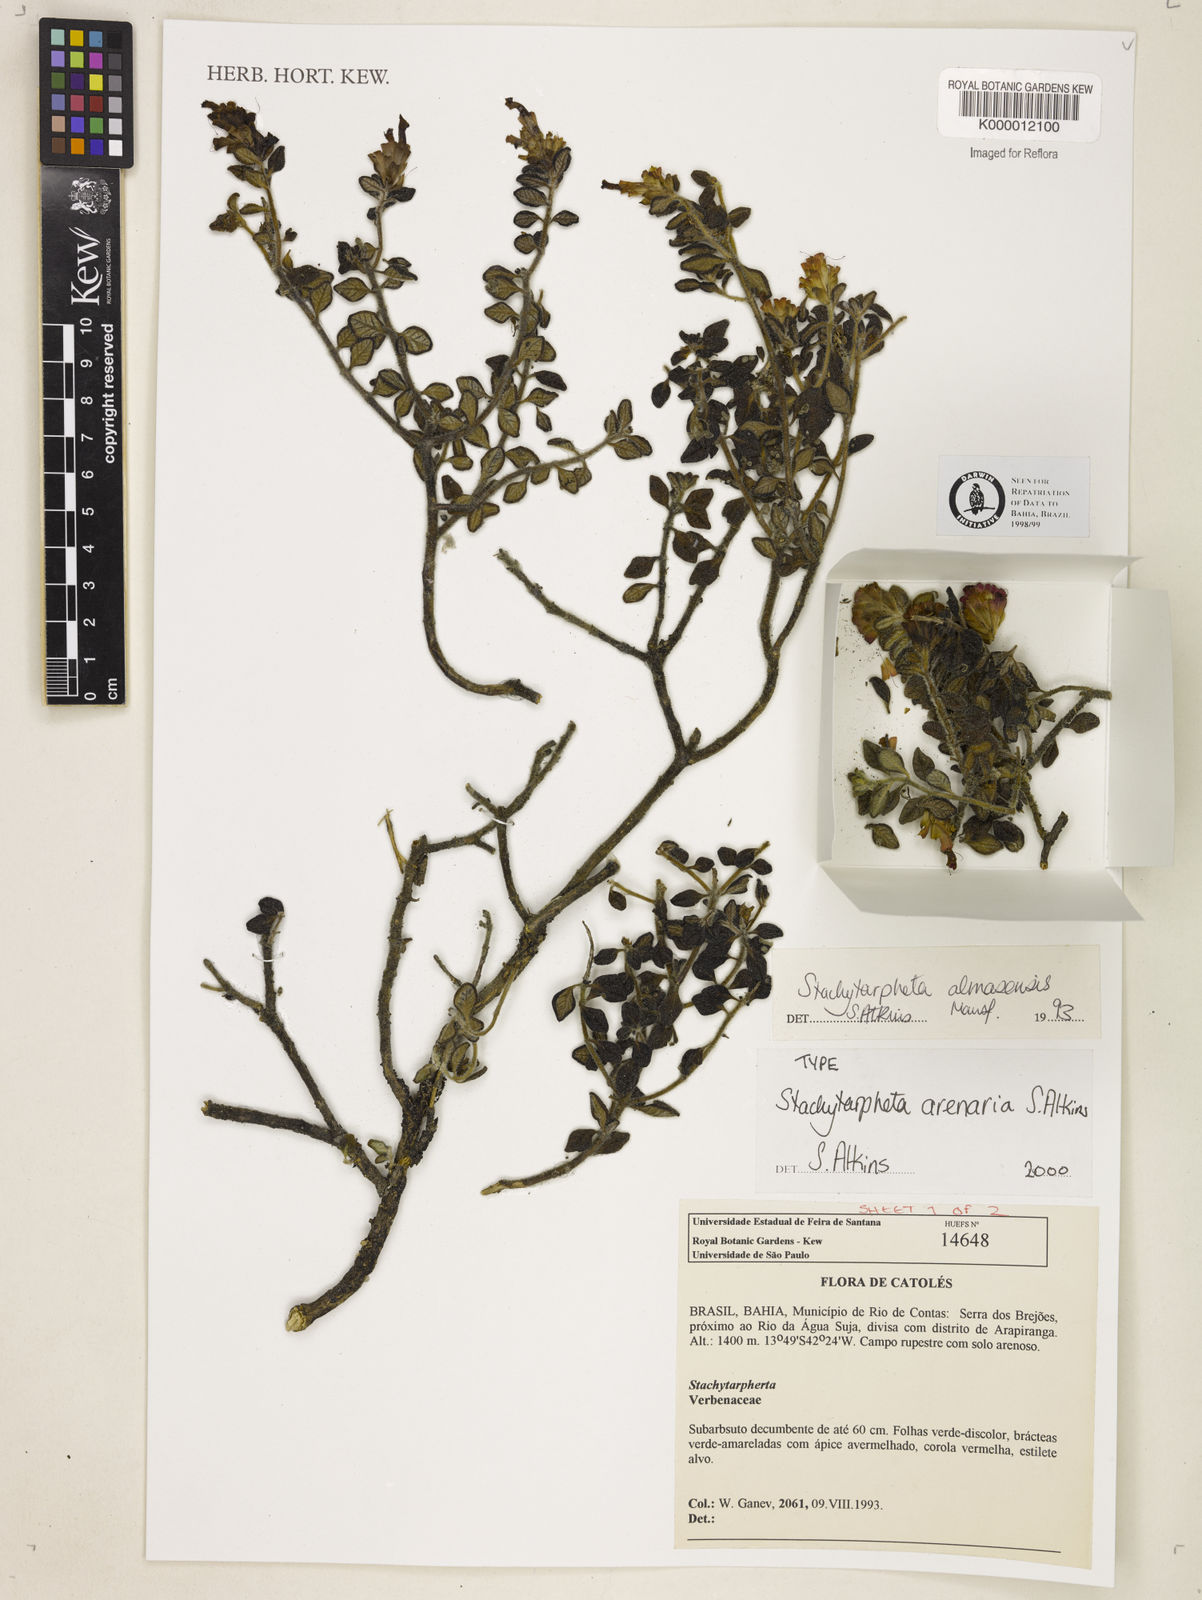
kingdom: Plantae
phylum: Tracheophyta
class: Magnoliopsida
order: Lamiales
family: Verbenaceae
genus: Stachytarpheta
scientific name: Stachytarpheta arenaria
